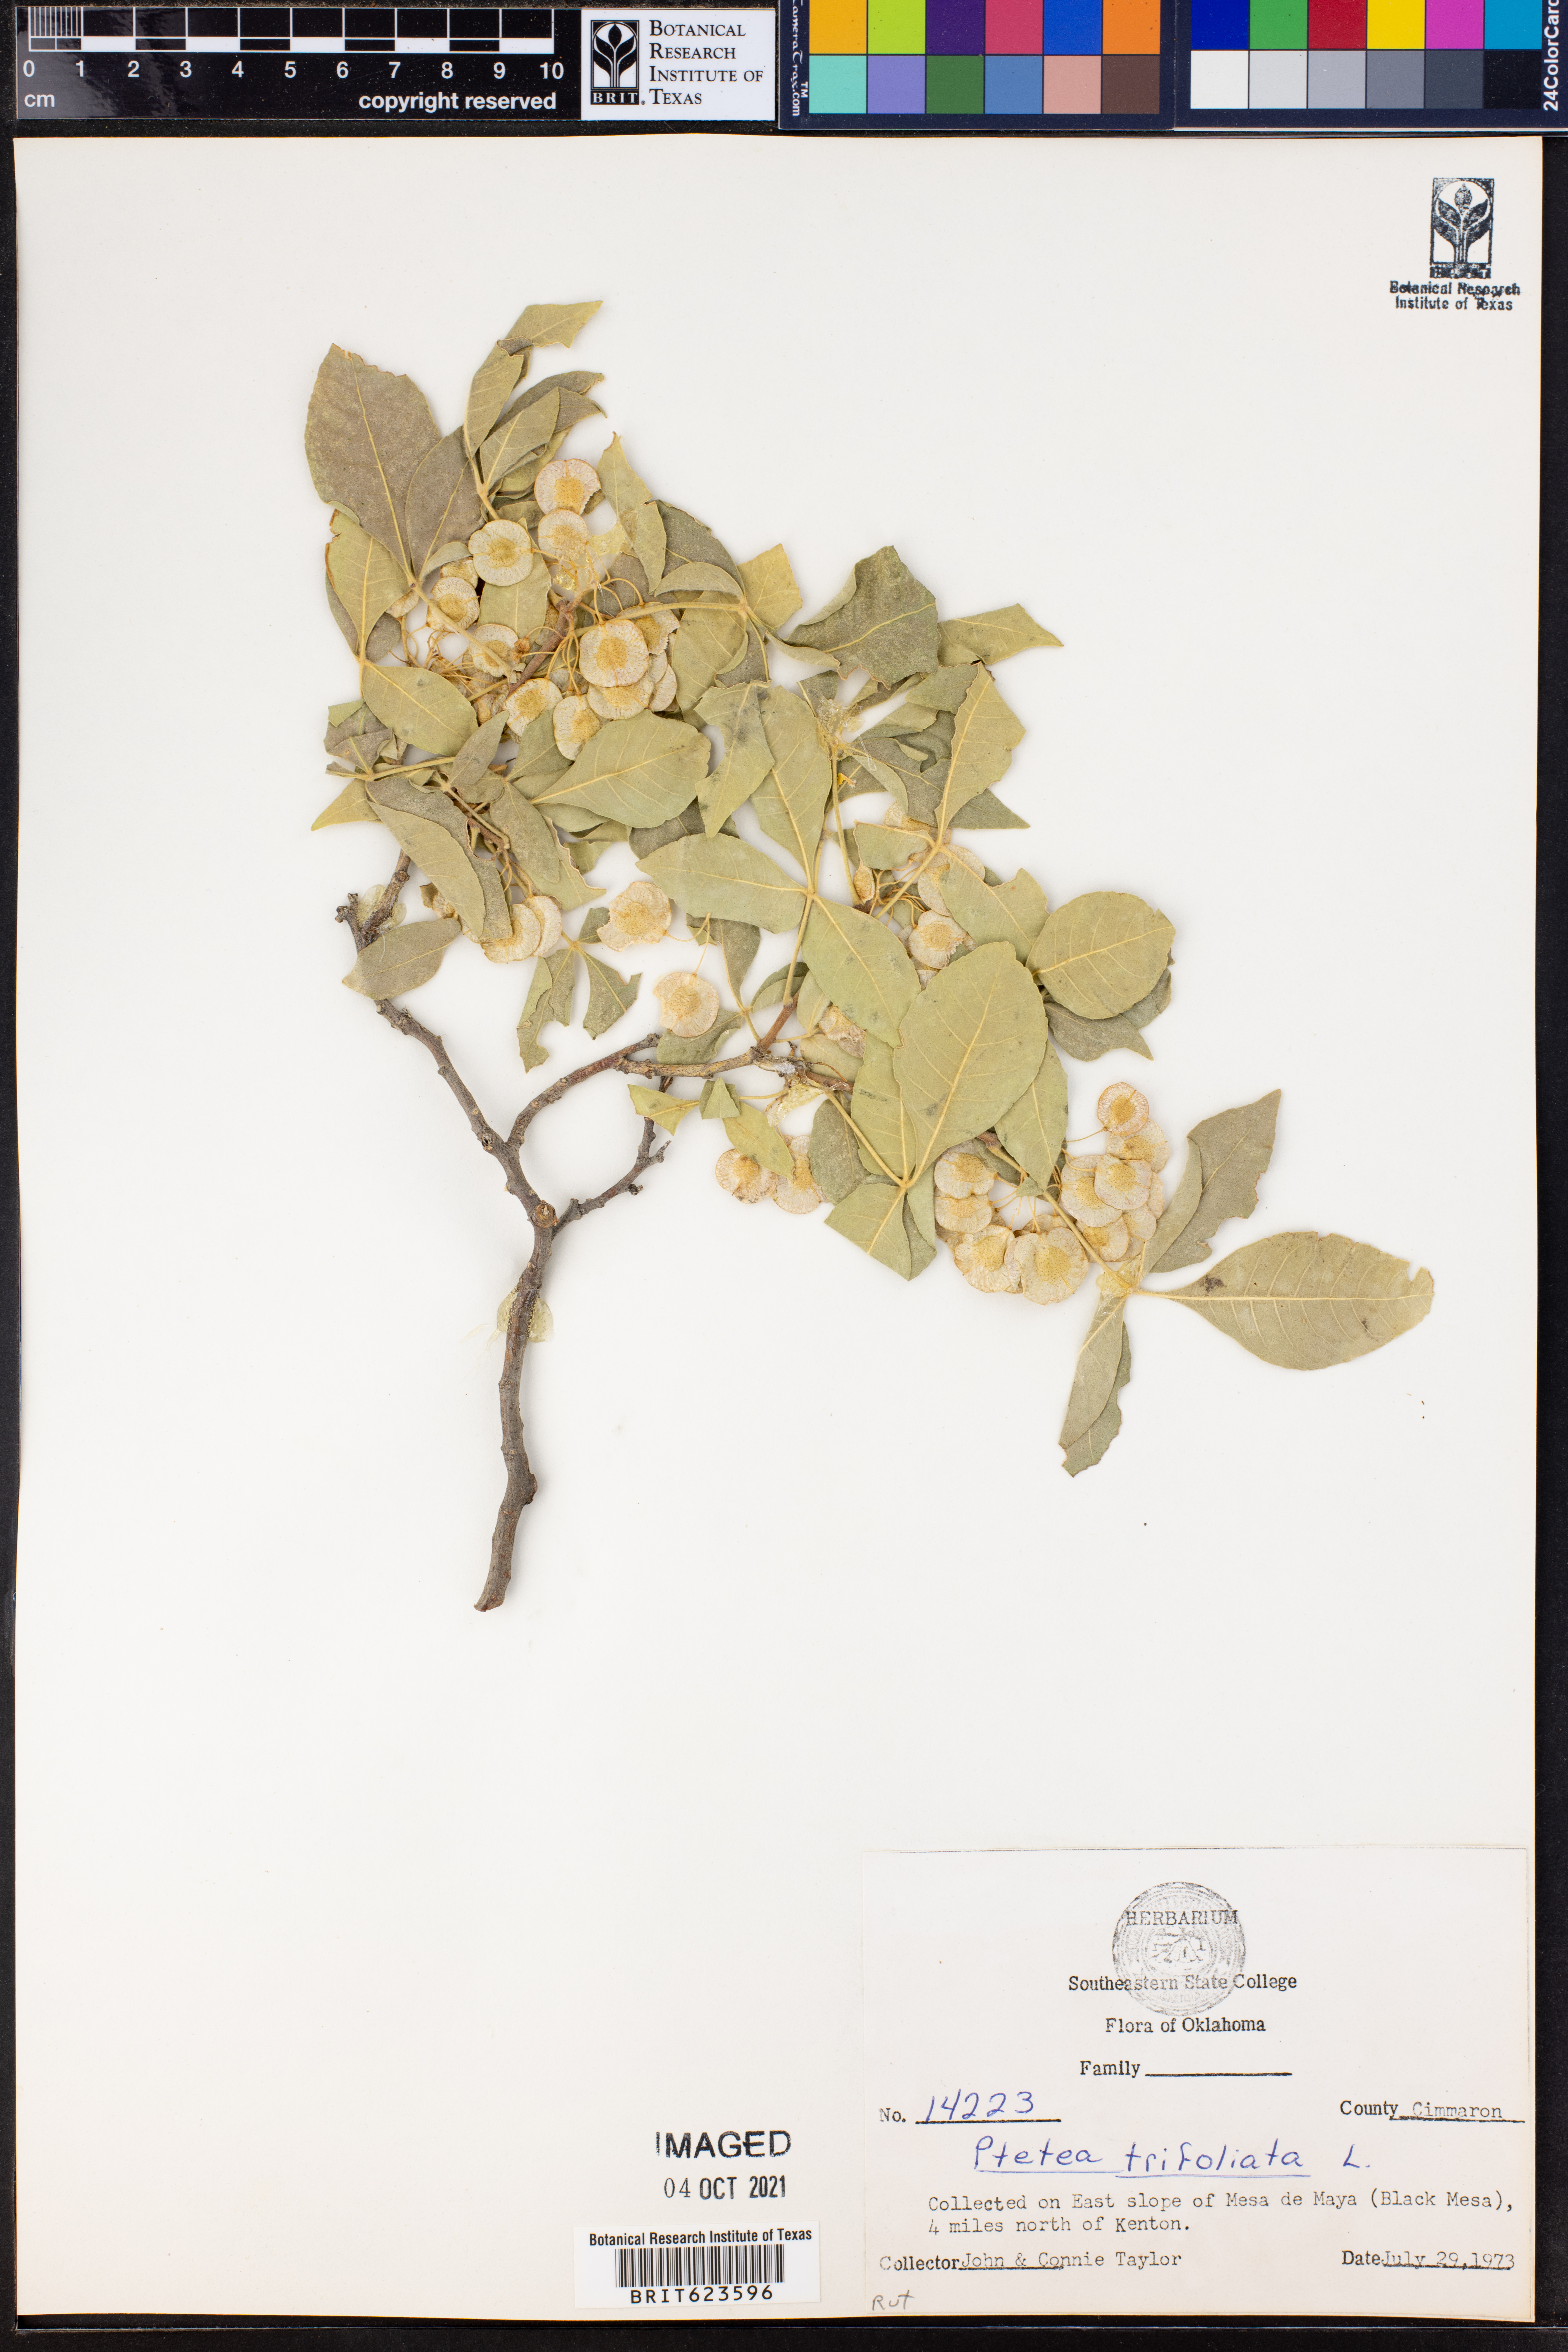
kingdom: Plantae
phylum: Tracheophyta
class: Magnoliopsida
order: Sapindales
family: Rutaceae
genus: Ptelea
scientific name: Ptelea trifoliata
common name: Common hop-tree
